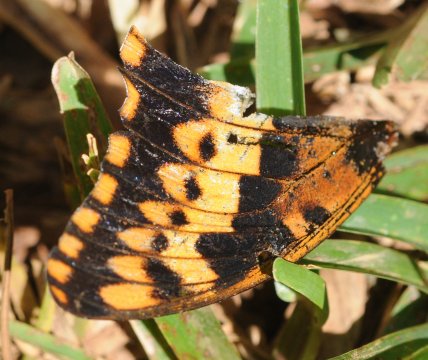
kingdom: Animalia
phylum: Arthropoda
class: Insecta
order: Lepidoptera
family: Nymphalidae
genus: Charaxes
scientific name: Charaxes jasius
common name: Two-tailed Pasha
